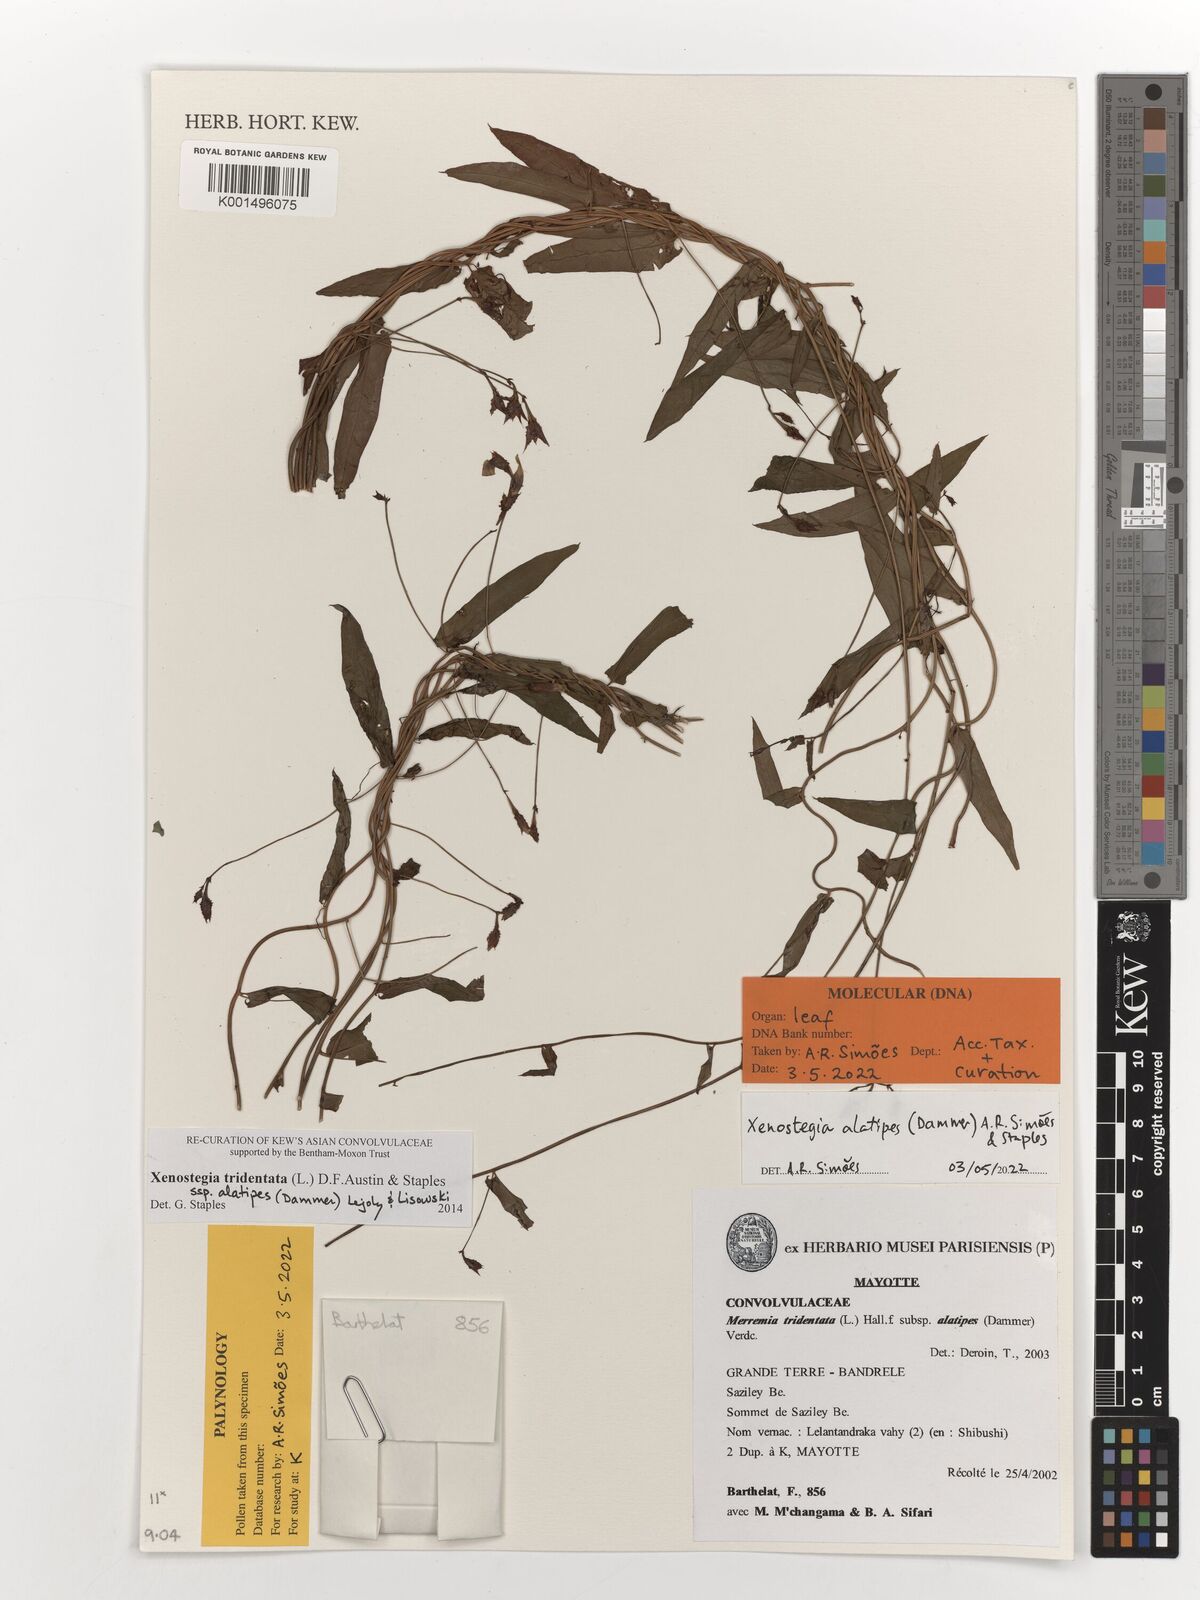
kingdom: Plantae
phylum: Tracheophyta
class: Magnoliopsida
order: Solanales
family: Convolvulaceae
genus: Xenostegia
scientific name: Xenostegia alatipes
